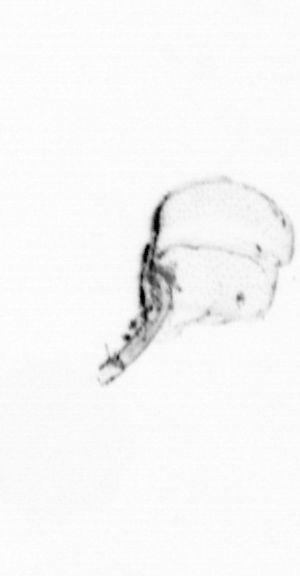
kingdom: Animalia
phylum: Arthropoda
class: Maxillopoda
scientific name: Maxillopoda
